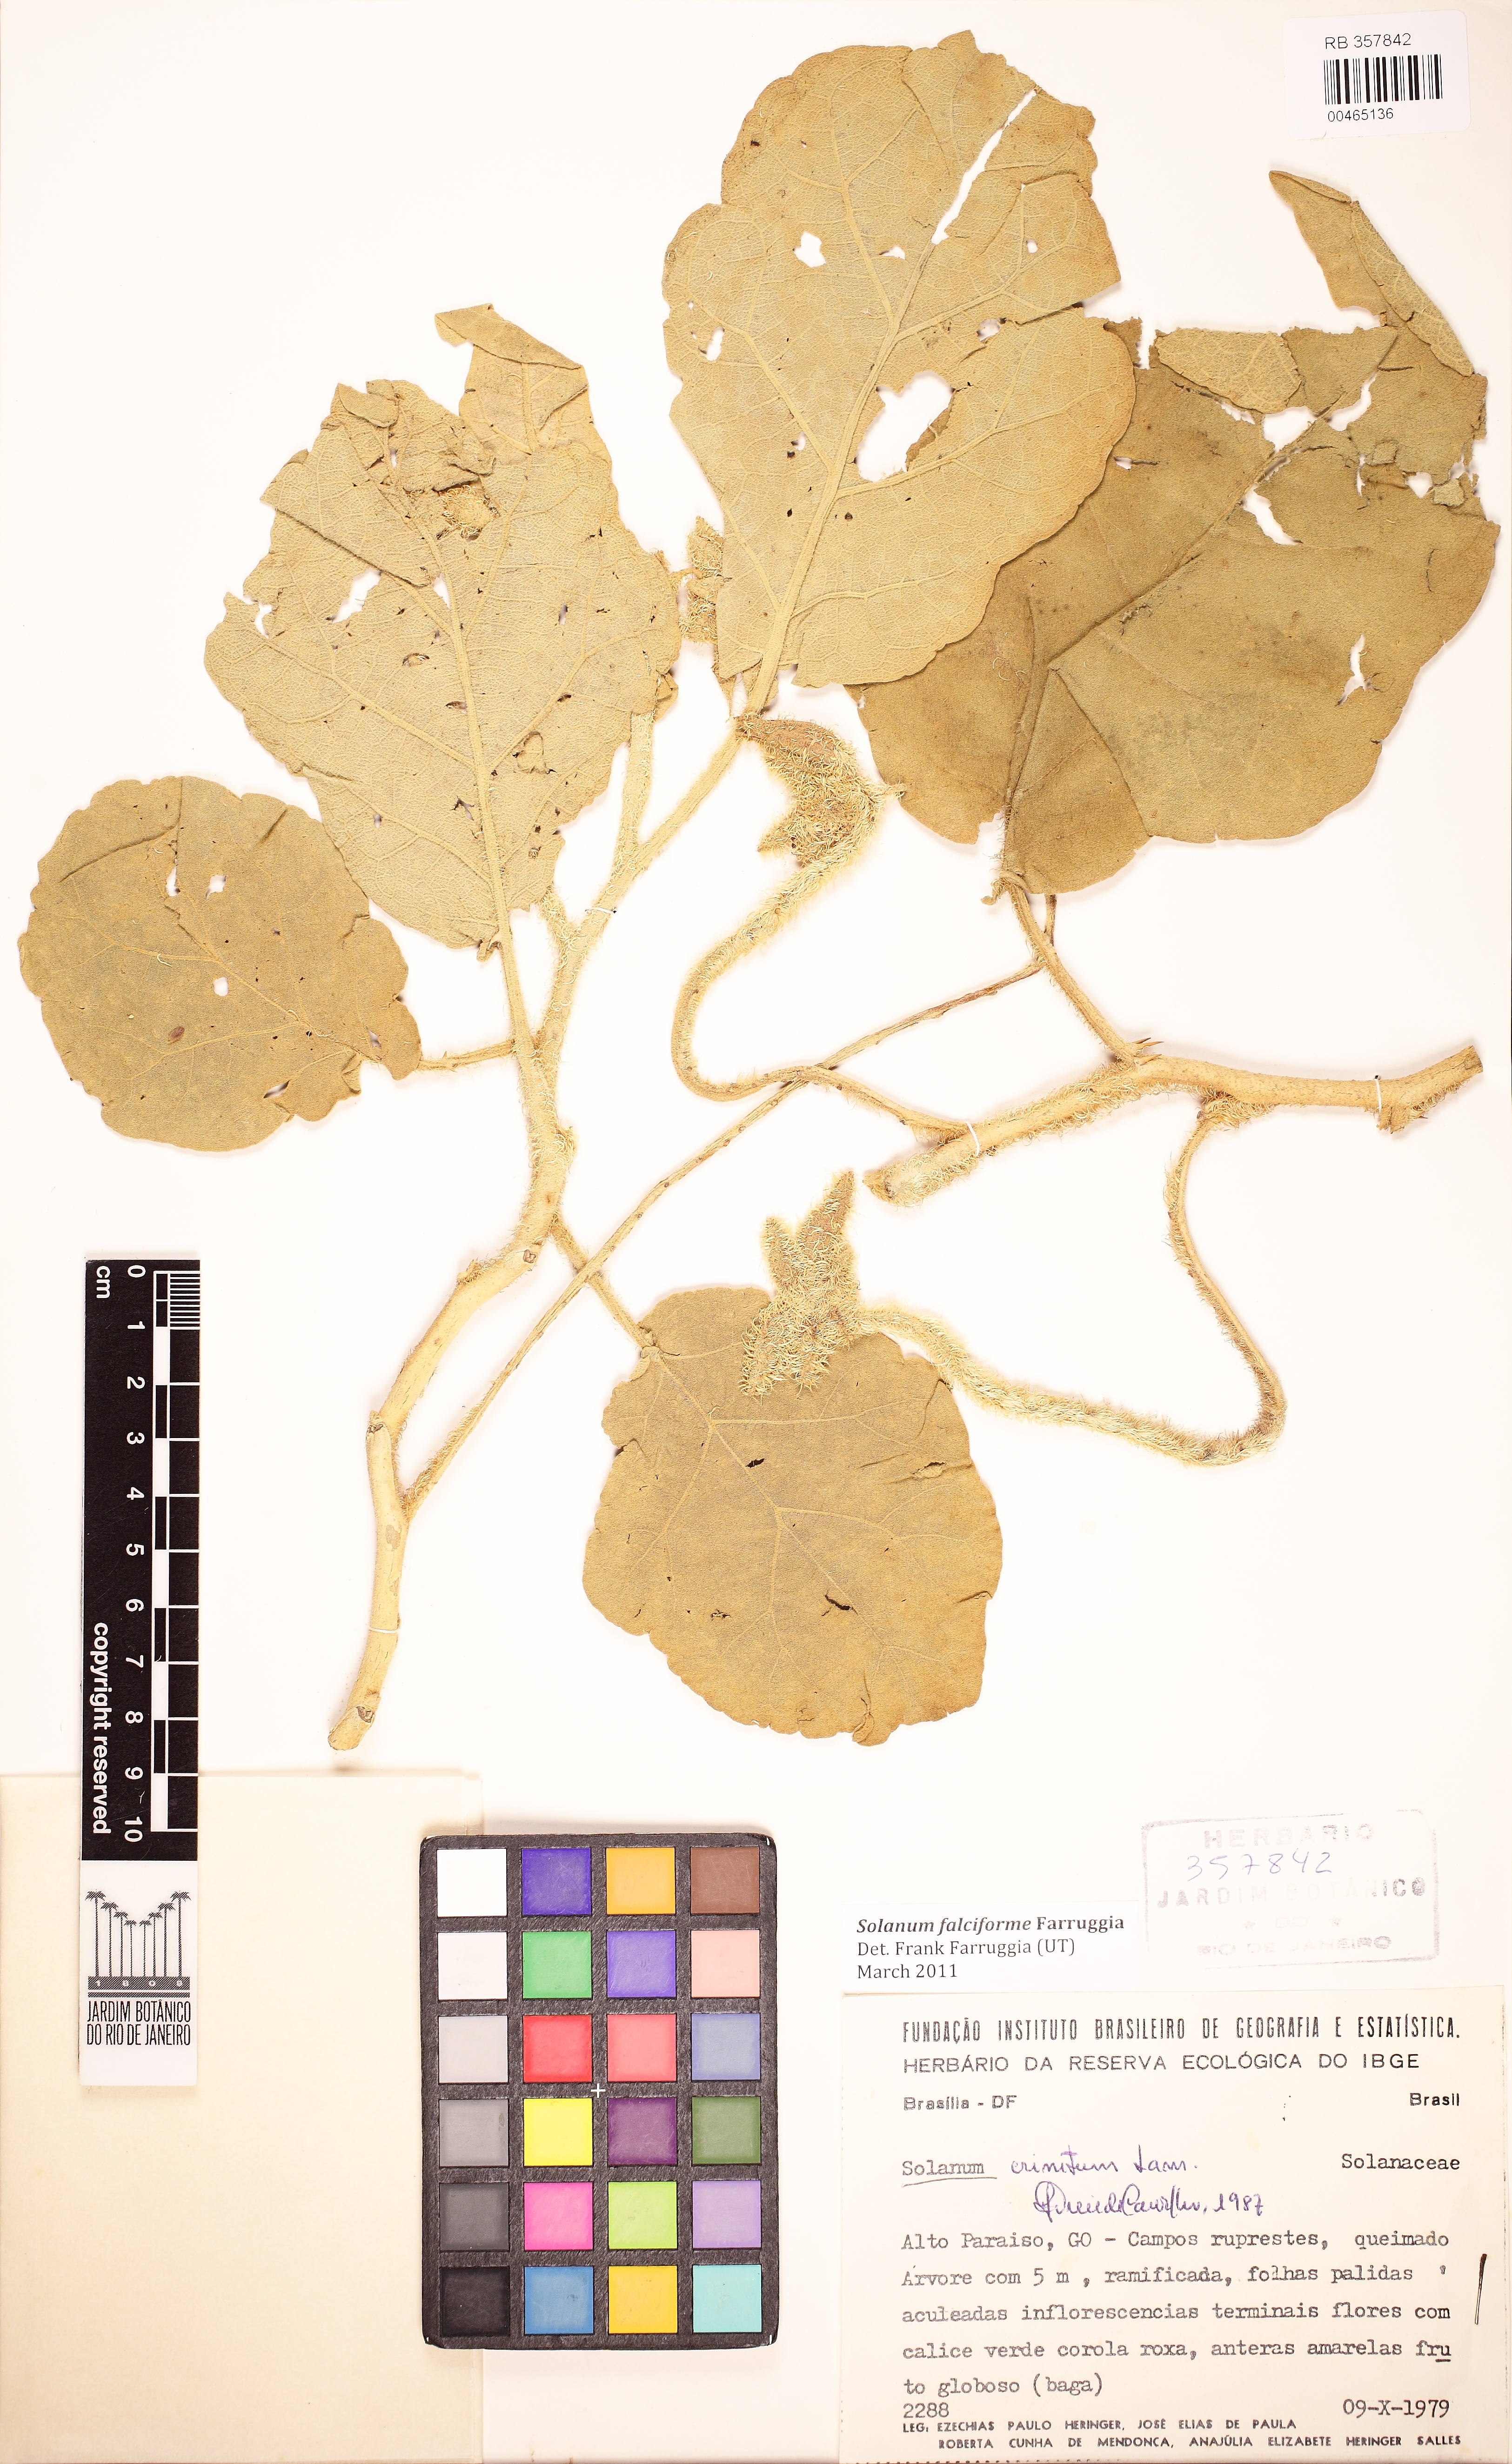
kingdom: Plantae
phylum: Tracheophyta
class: Magnoliopsida
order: Solanales
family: Solanaceae
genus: Solanum
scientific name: Solanum falciforme
